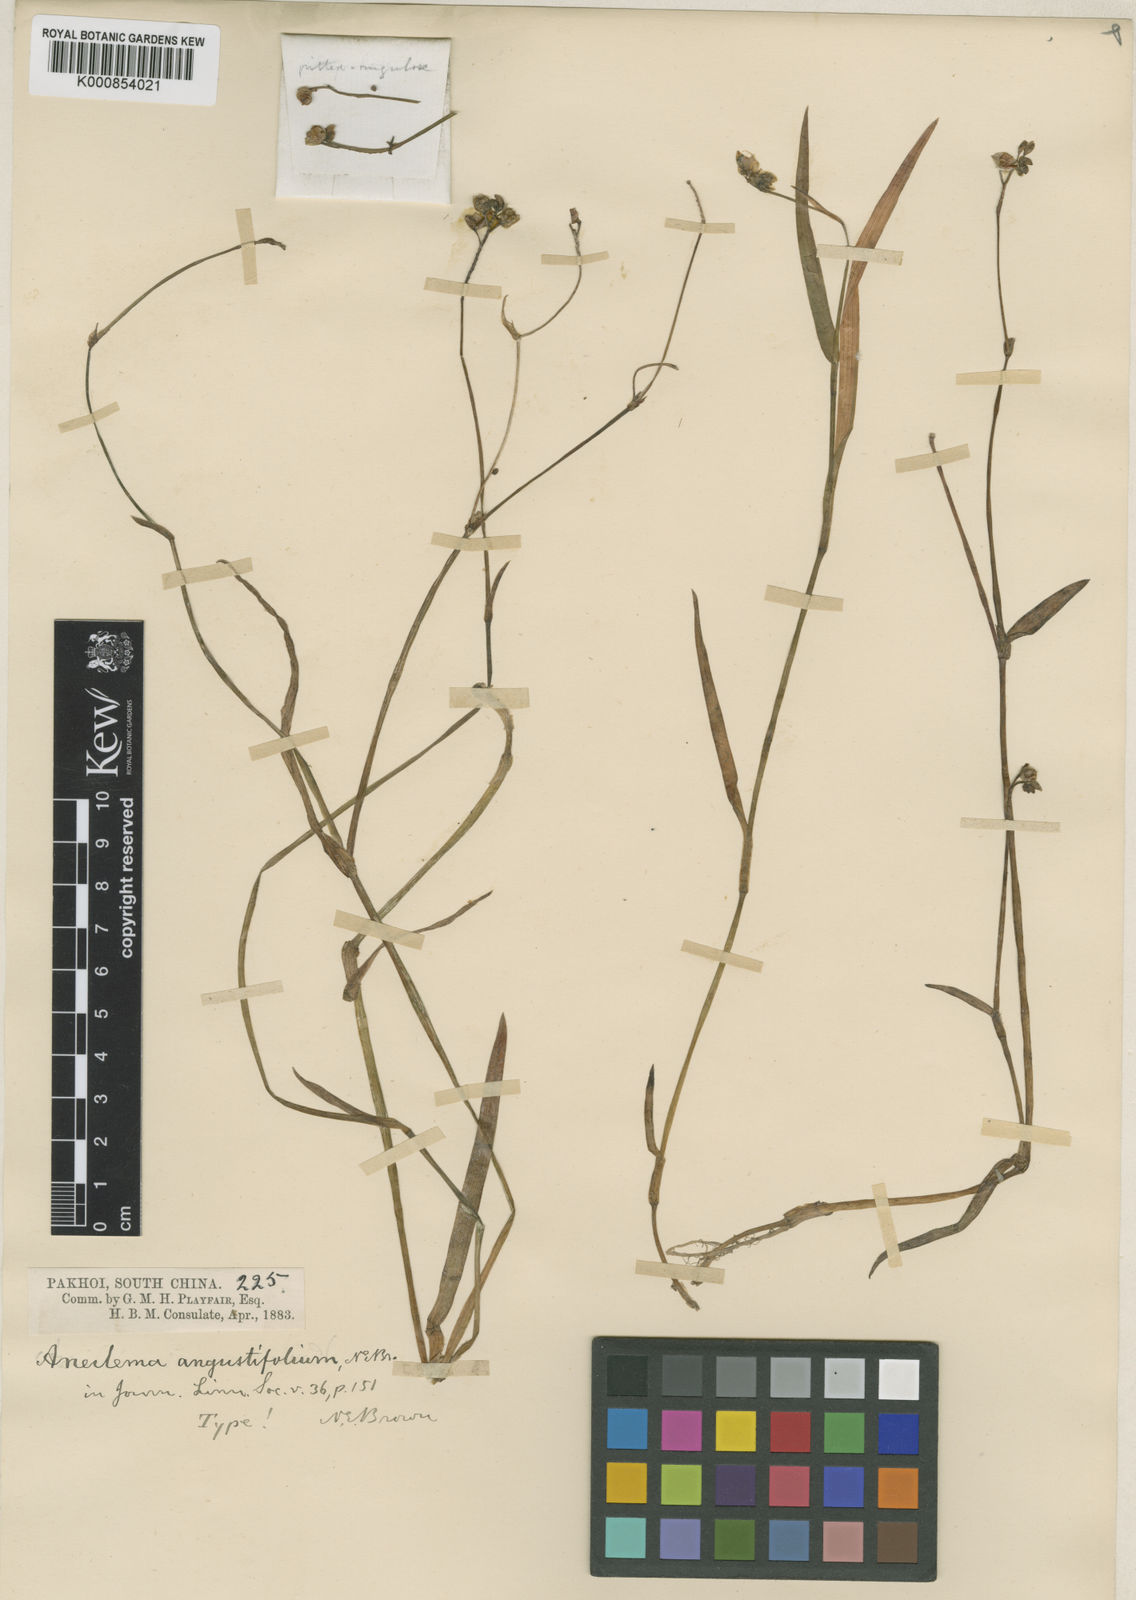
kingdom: Plantae
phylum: Tracheophyta
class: Liliopsida
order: Commelinales
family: Commelinaceae
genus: Murdannia
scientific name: Murdannia loriformis
